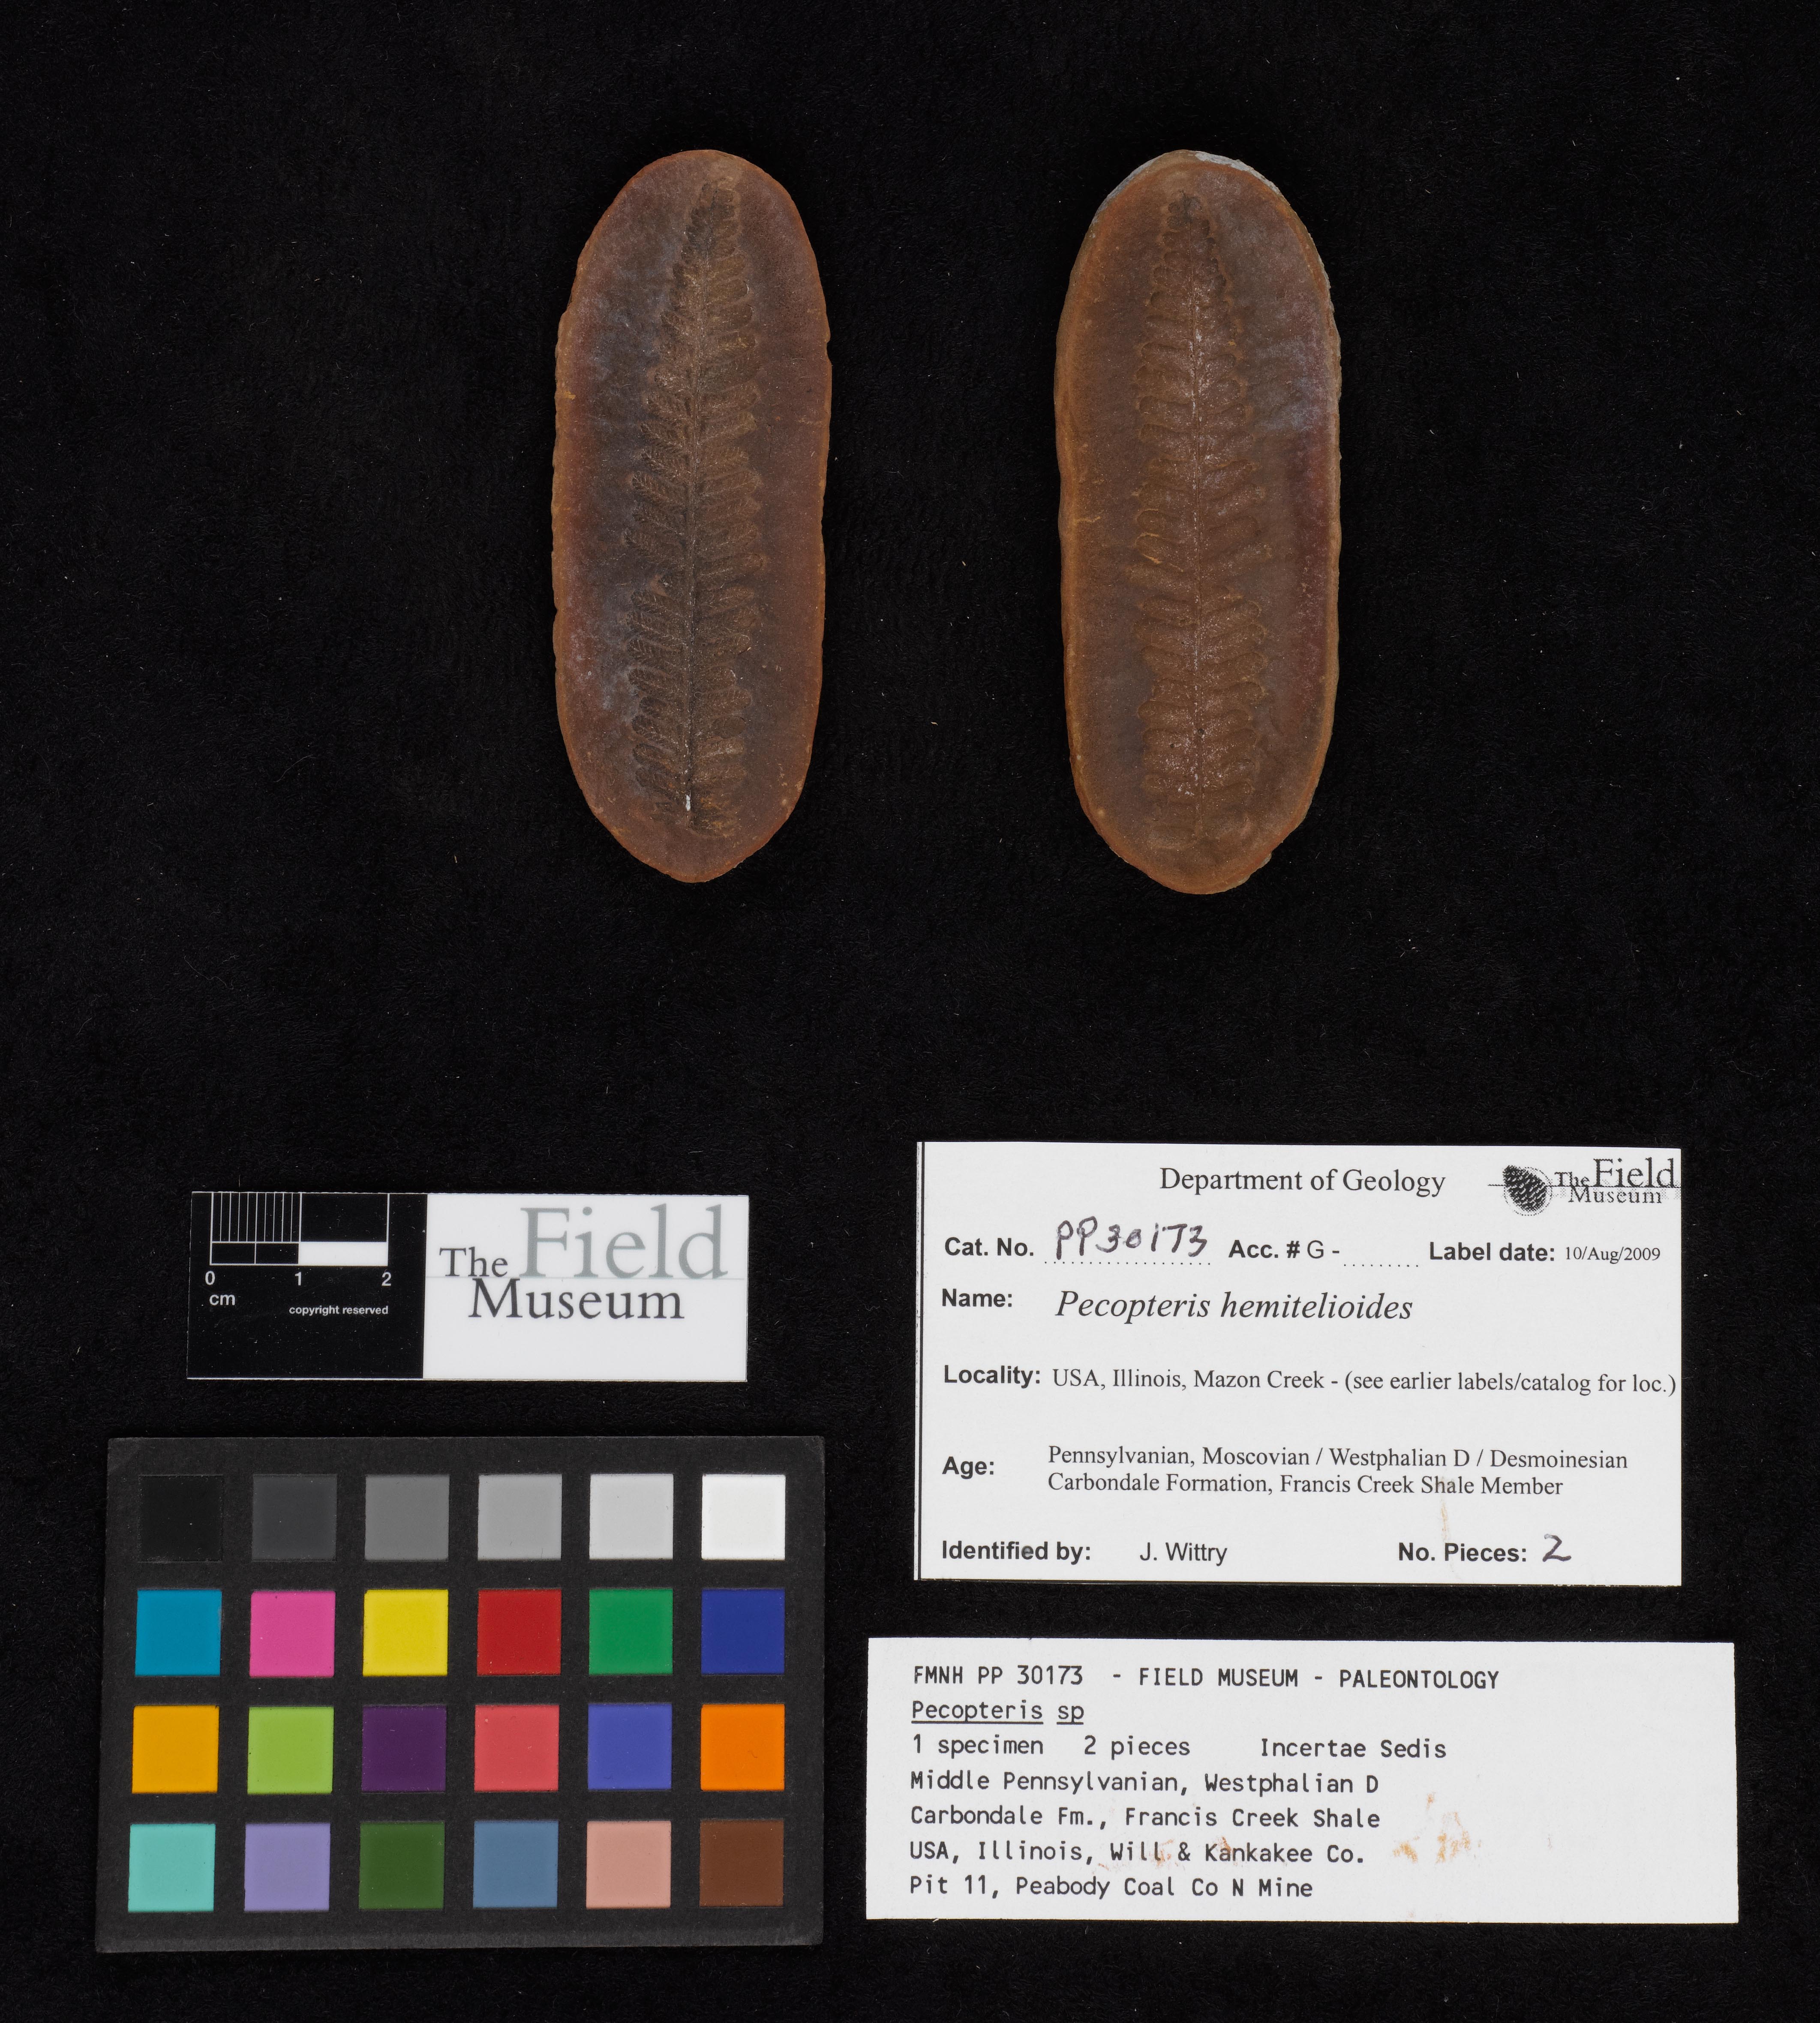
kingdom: Plantae
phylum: Tracheophyta
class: Polypodiopsida
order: Marattiales
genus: Cyathocarpus
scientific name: Cyathocarpus
